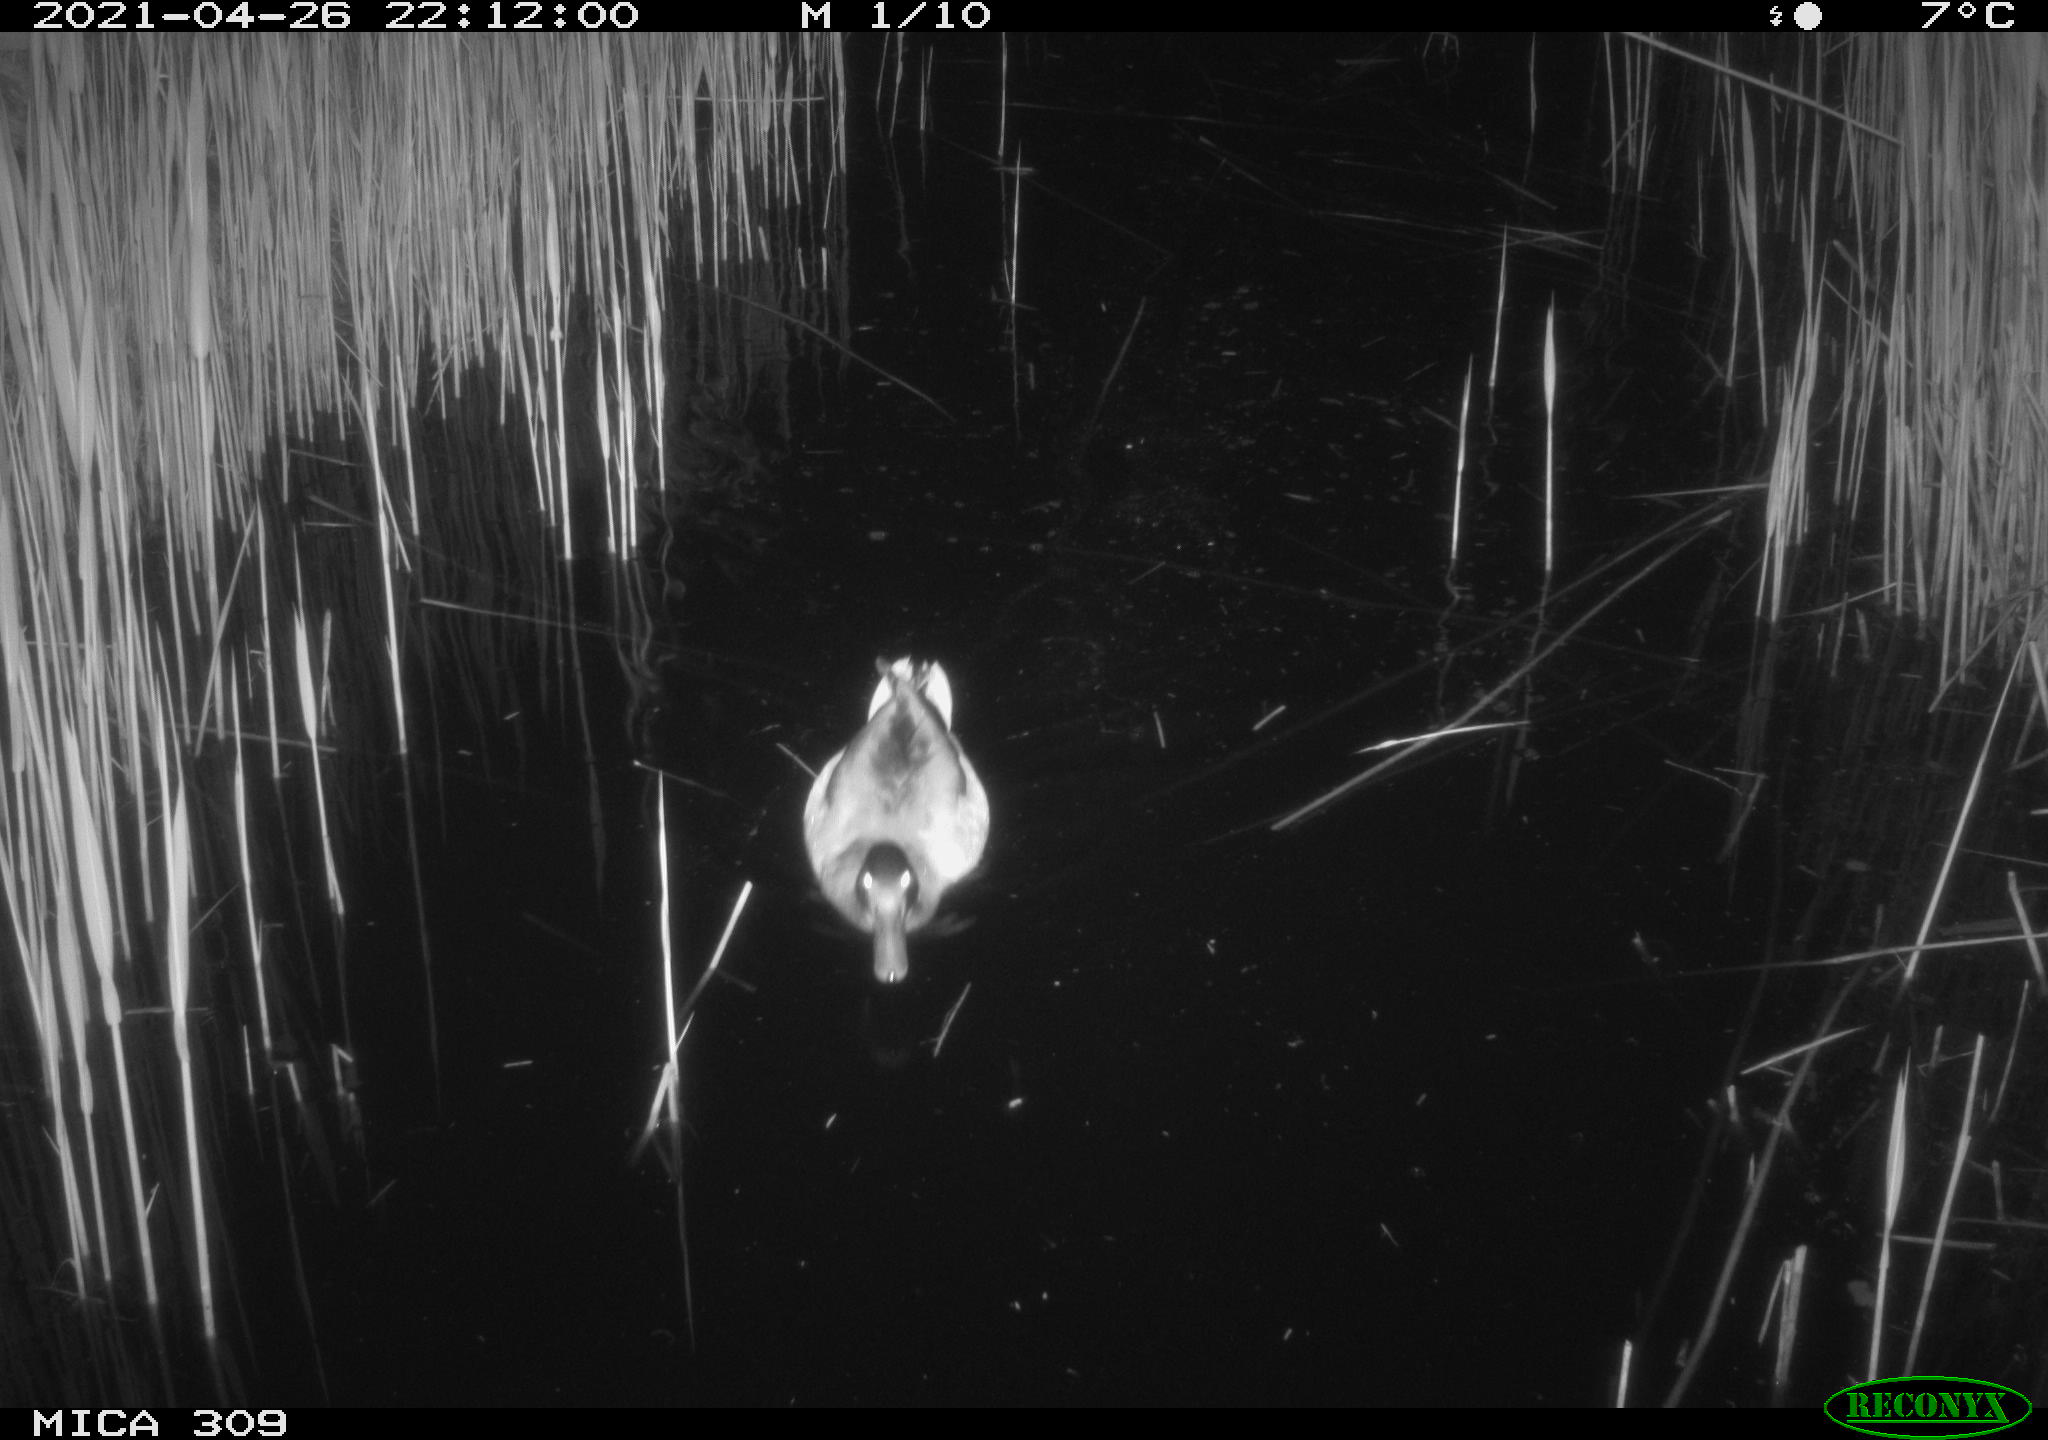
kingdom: Animalia
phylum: Chordata
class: Aves
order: Anseriformes
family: Anatidae
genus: Anas
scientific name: Anas platyrhynchos
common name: Mallard
